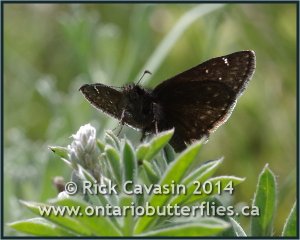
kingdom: Animalia
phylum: Arthropoda
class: Insecta
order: Lepidoptera
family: Hesperiidae
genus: Gesta
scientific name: Gesta
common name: Persius Duskywing
